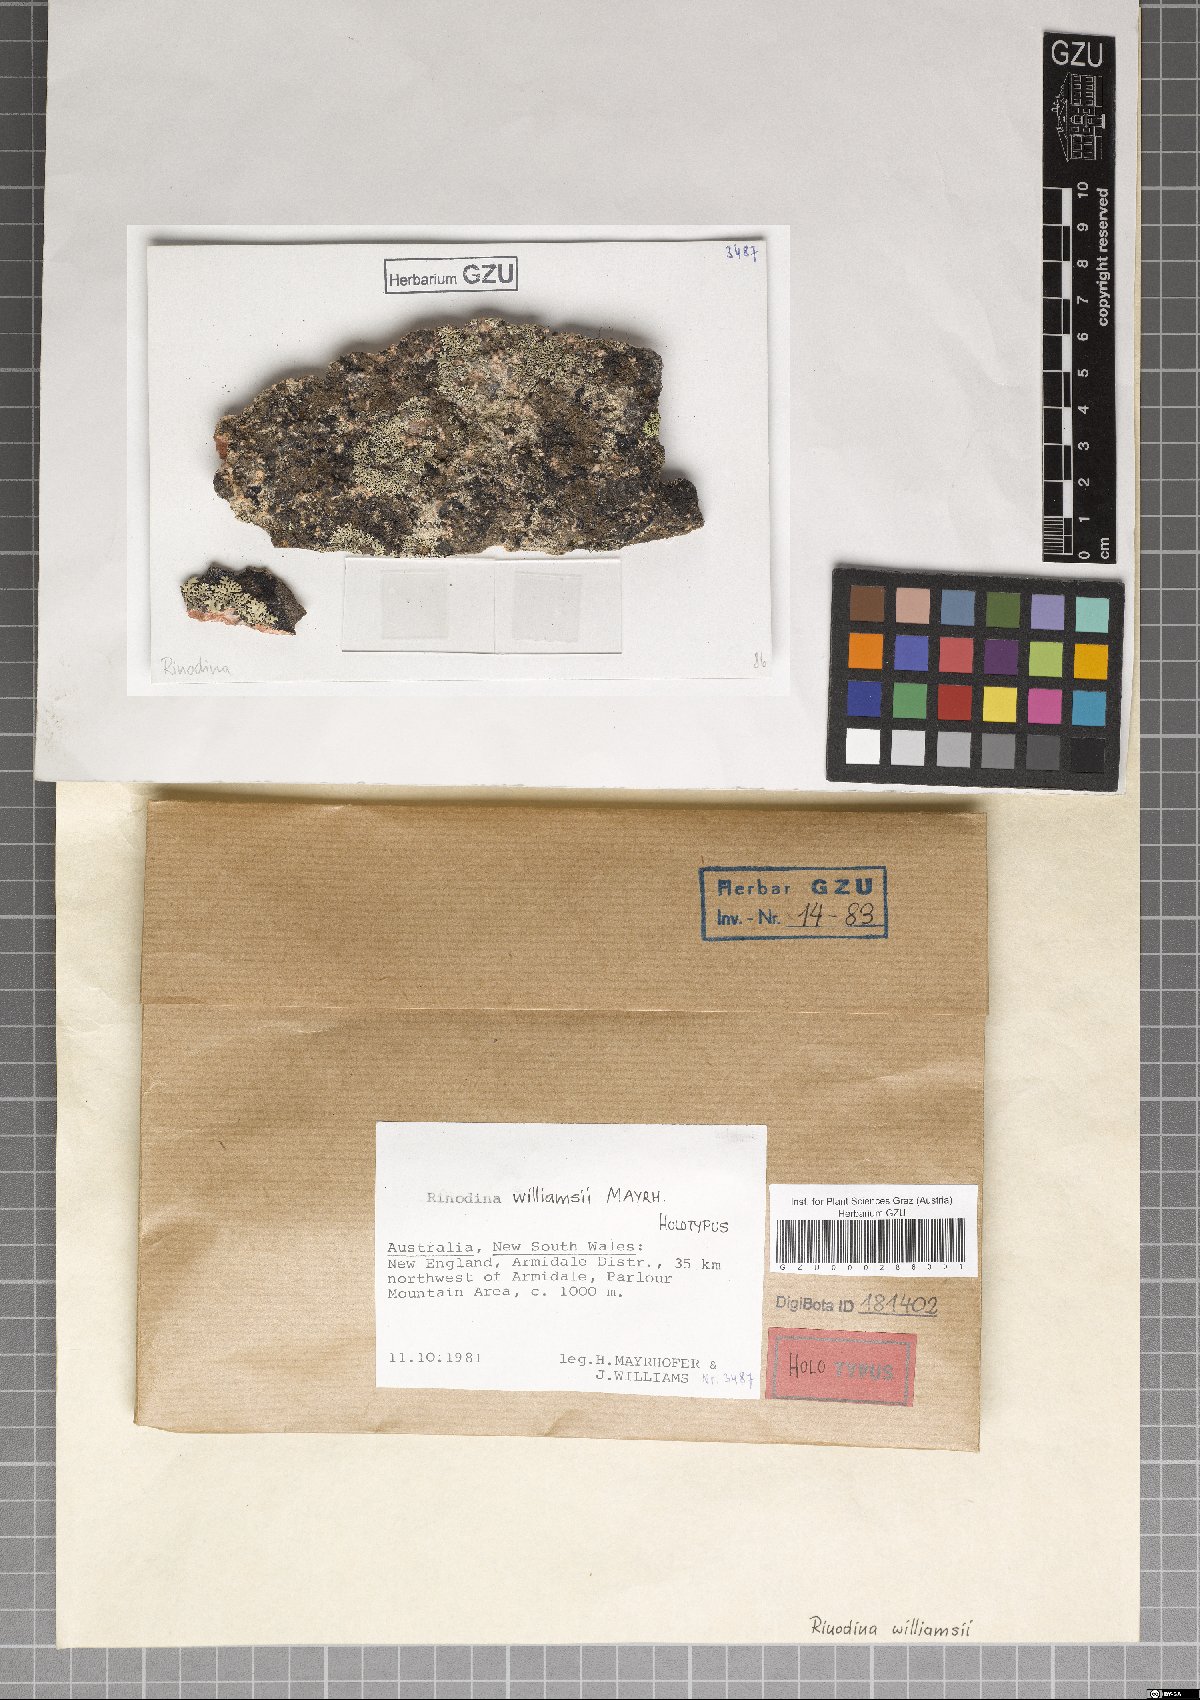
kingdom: Fungi
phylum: Ascomycota
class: Lecanoromycetes
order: Caliciales
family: Physciaceae
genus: Rinodina
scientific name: Rinodina williamsii
